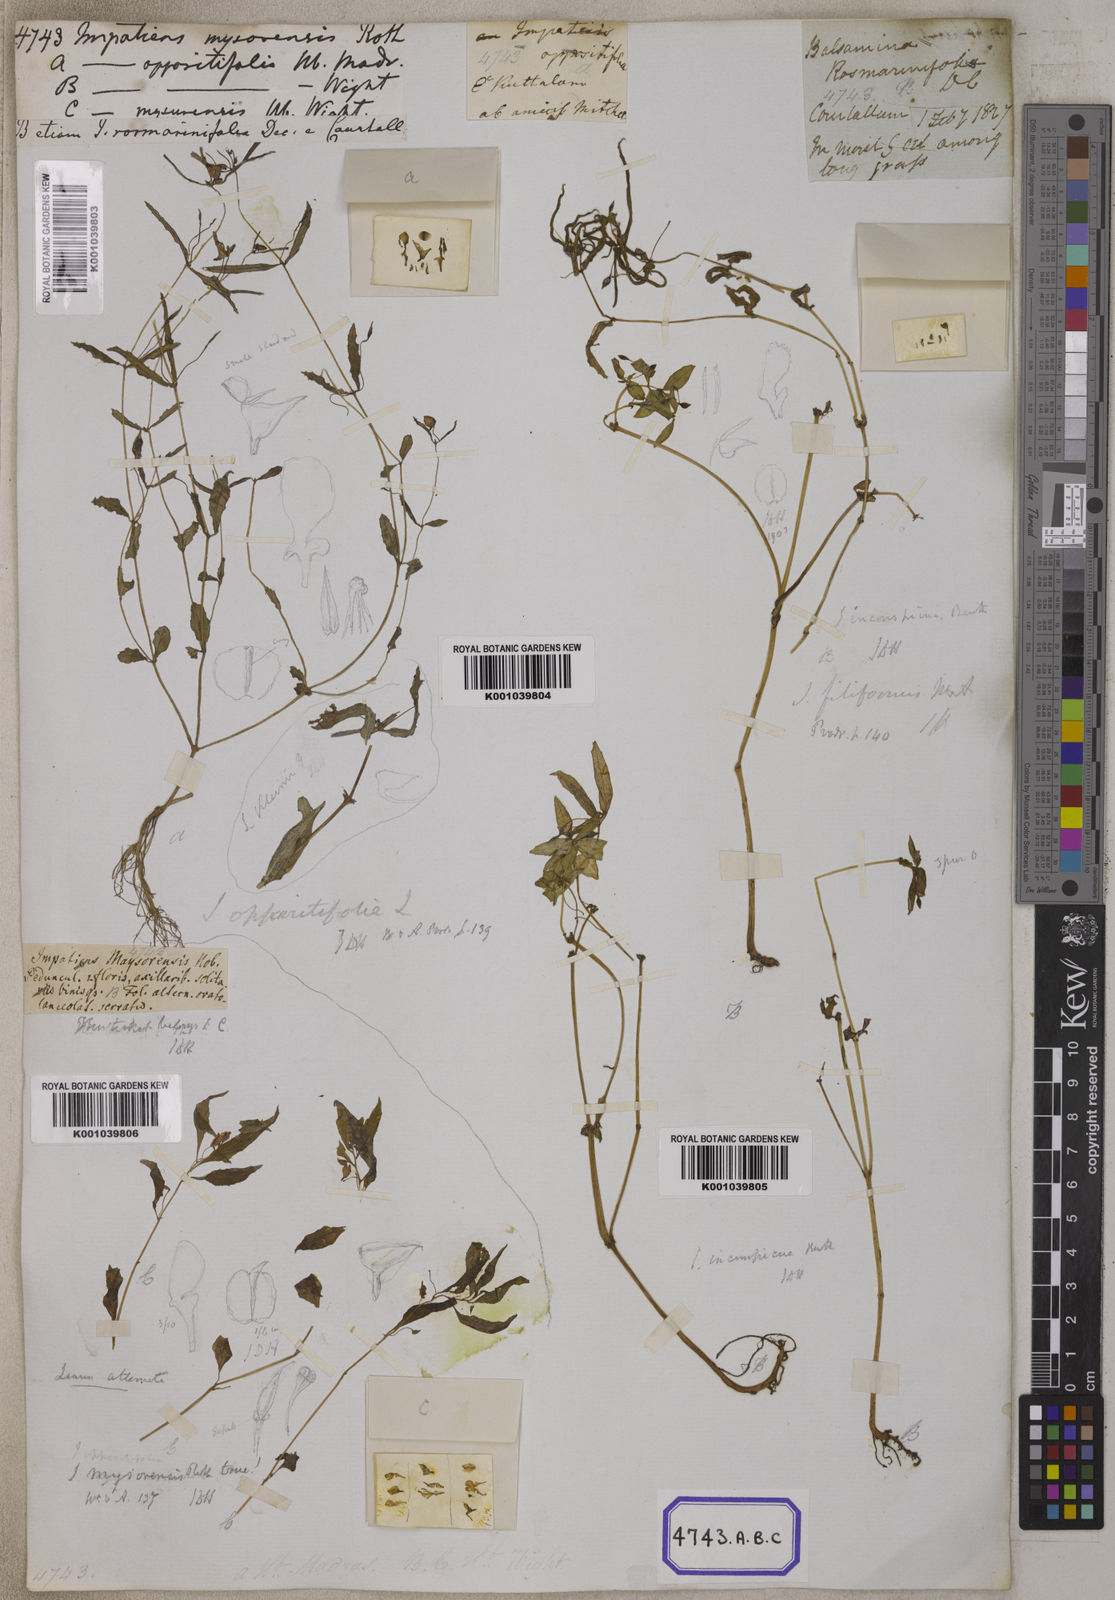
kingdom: Plantae
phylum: Tracheophyta
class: Magnoliopsida
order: Ericales
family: Balsaminaceae
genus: Impatiens
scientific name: Impatiens inconspicua
